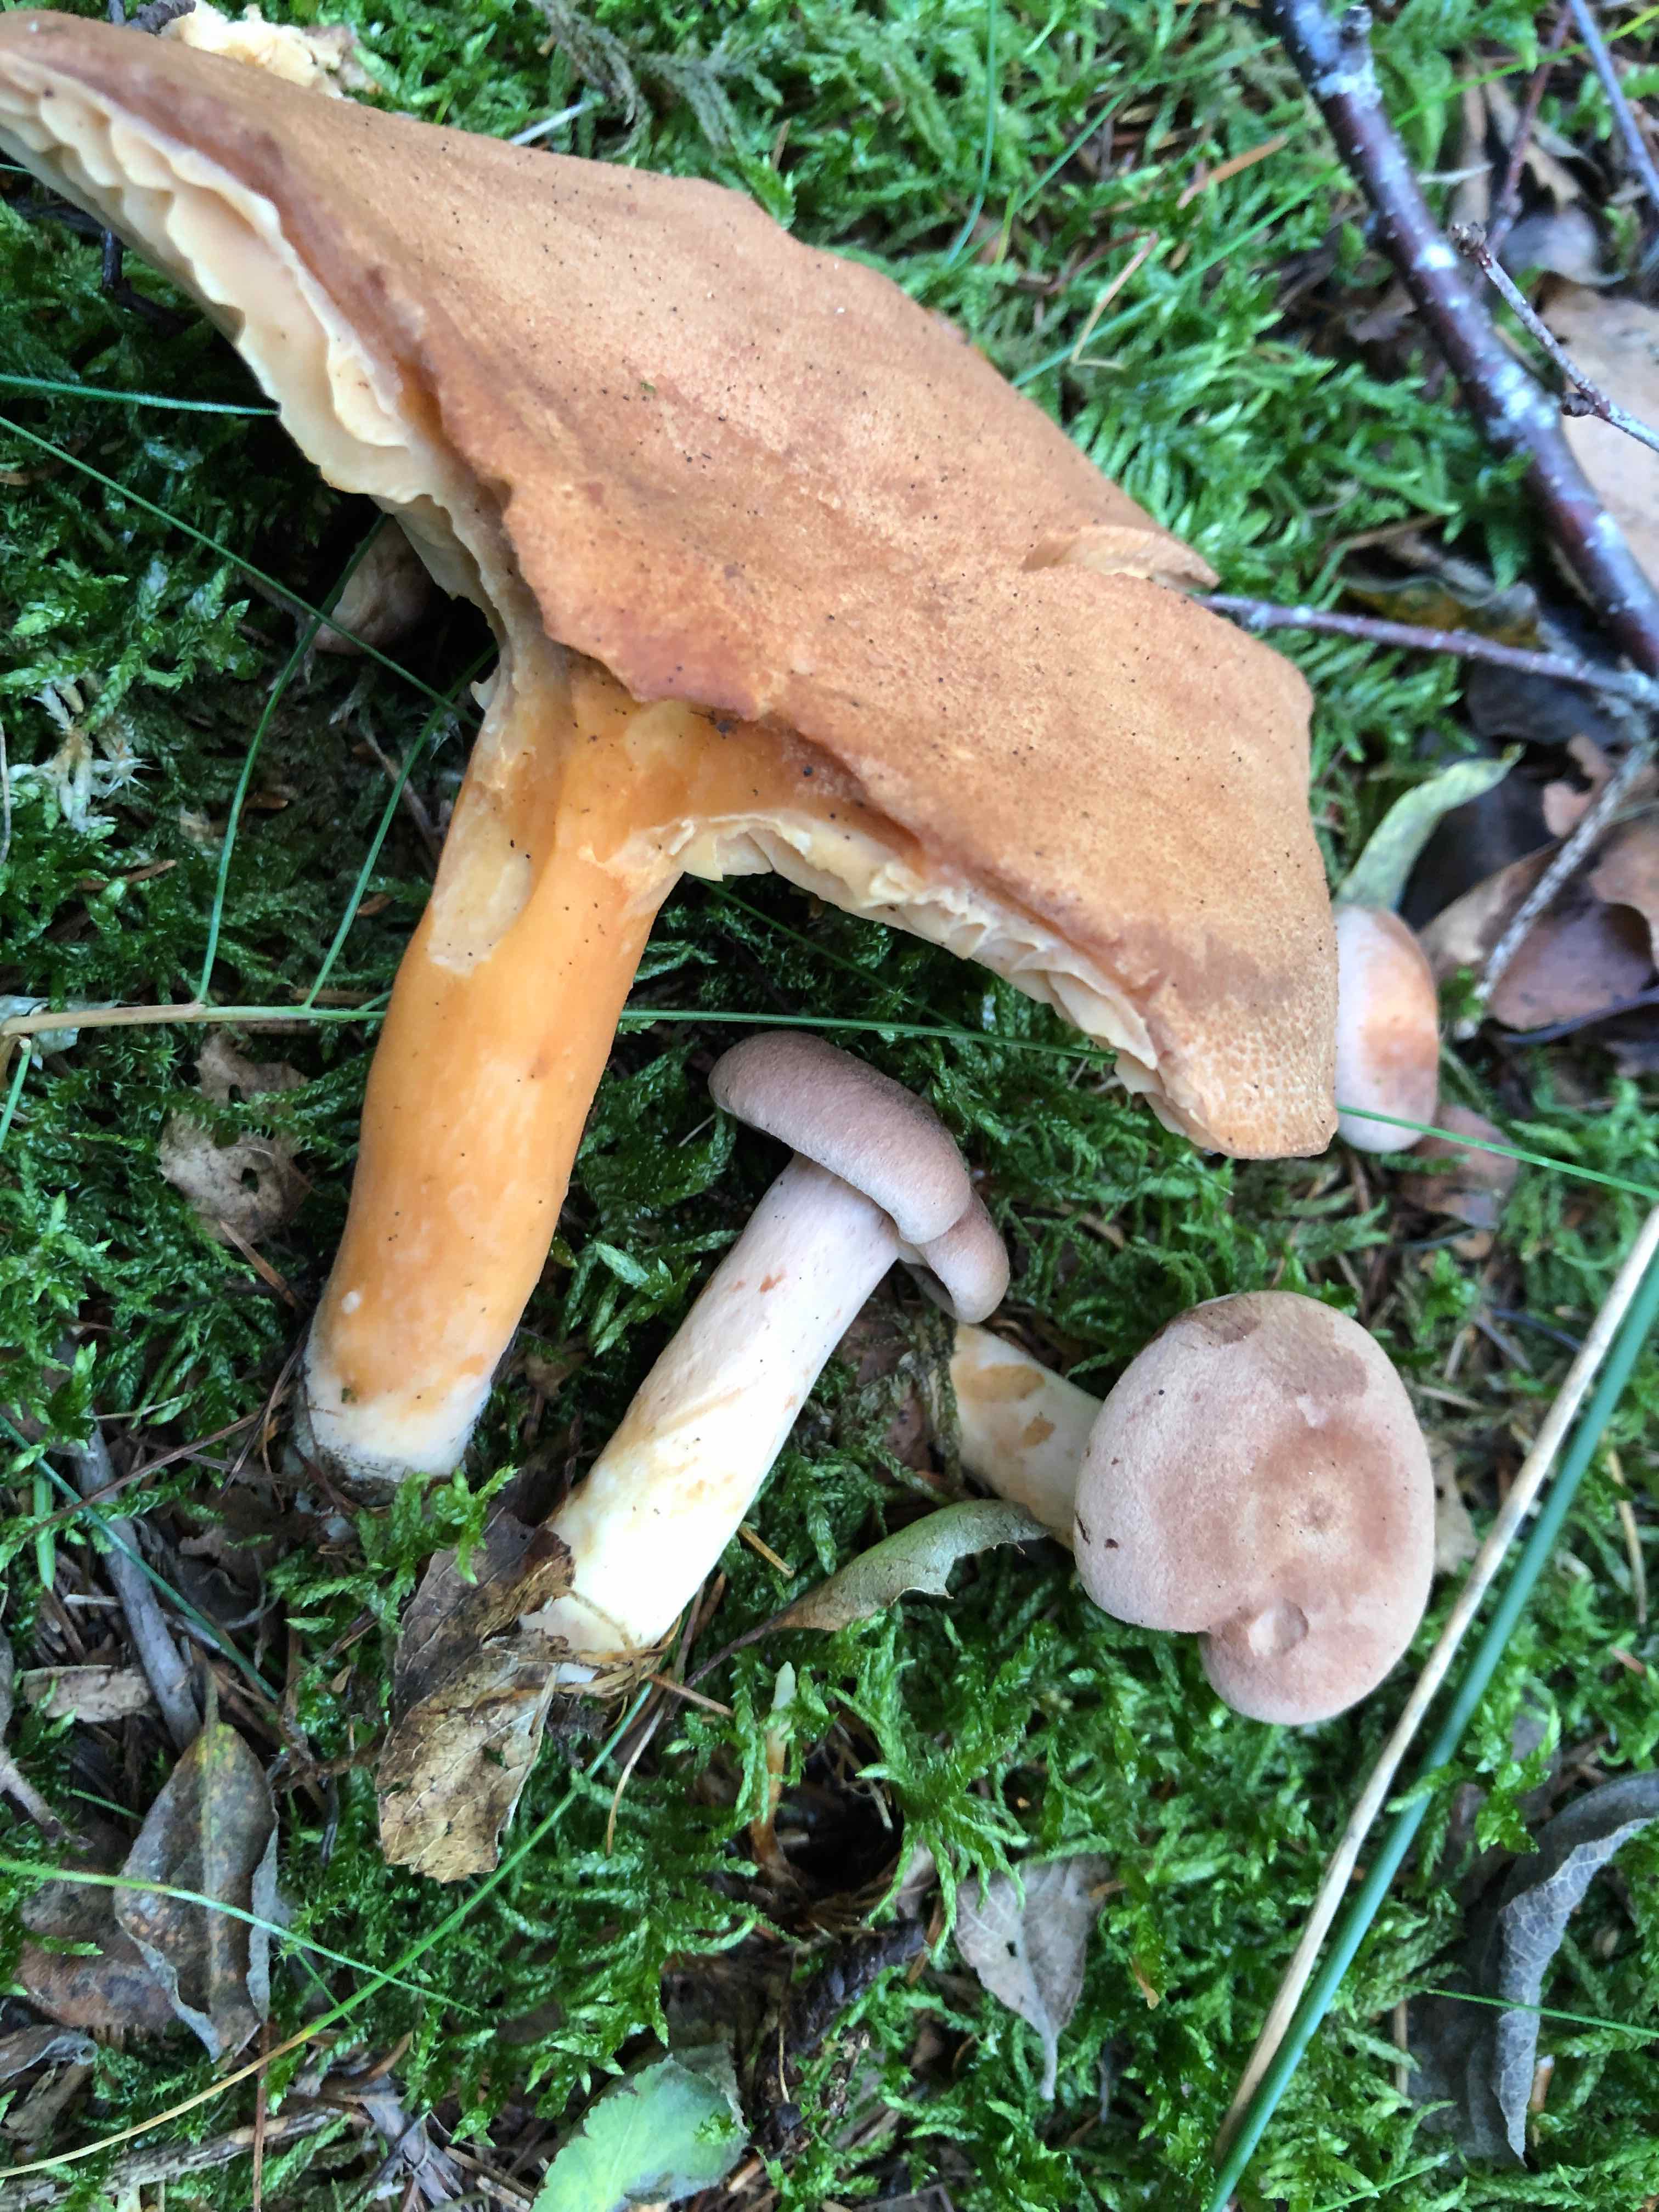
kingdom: Fungi
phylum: Basidiomycota
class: Agaricomycetes
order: Russulales
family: Russulaceae
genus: Lactarius
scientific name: Lactarius helvus
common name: mose-mælkehat
